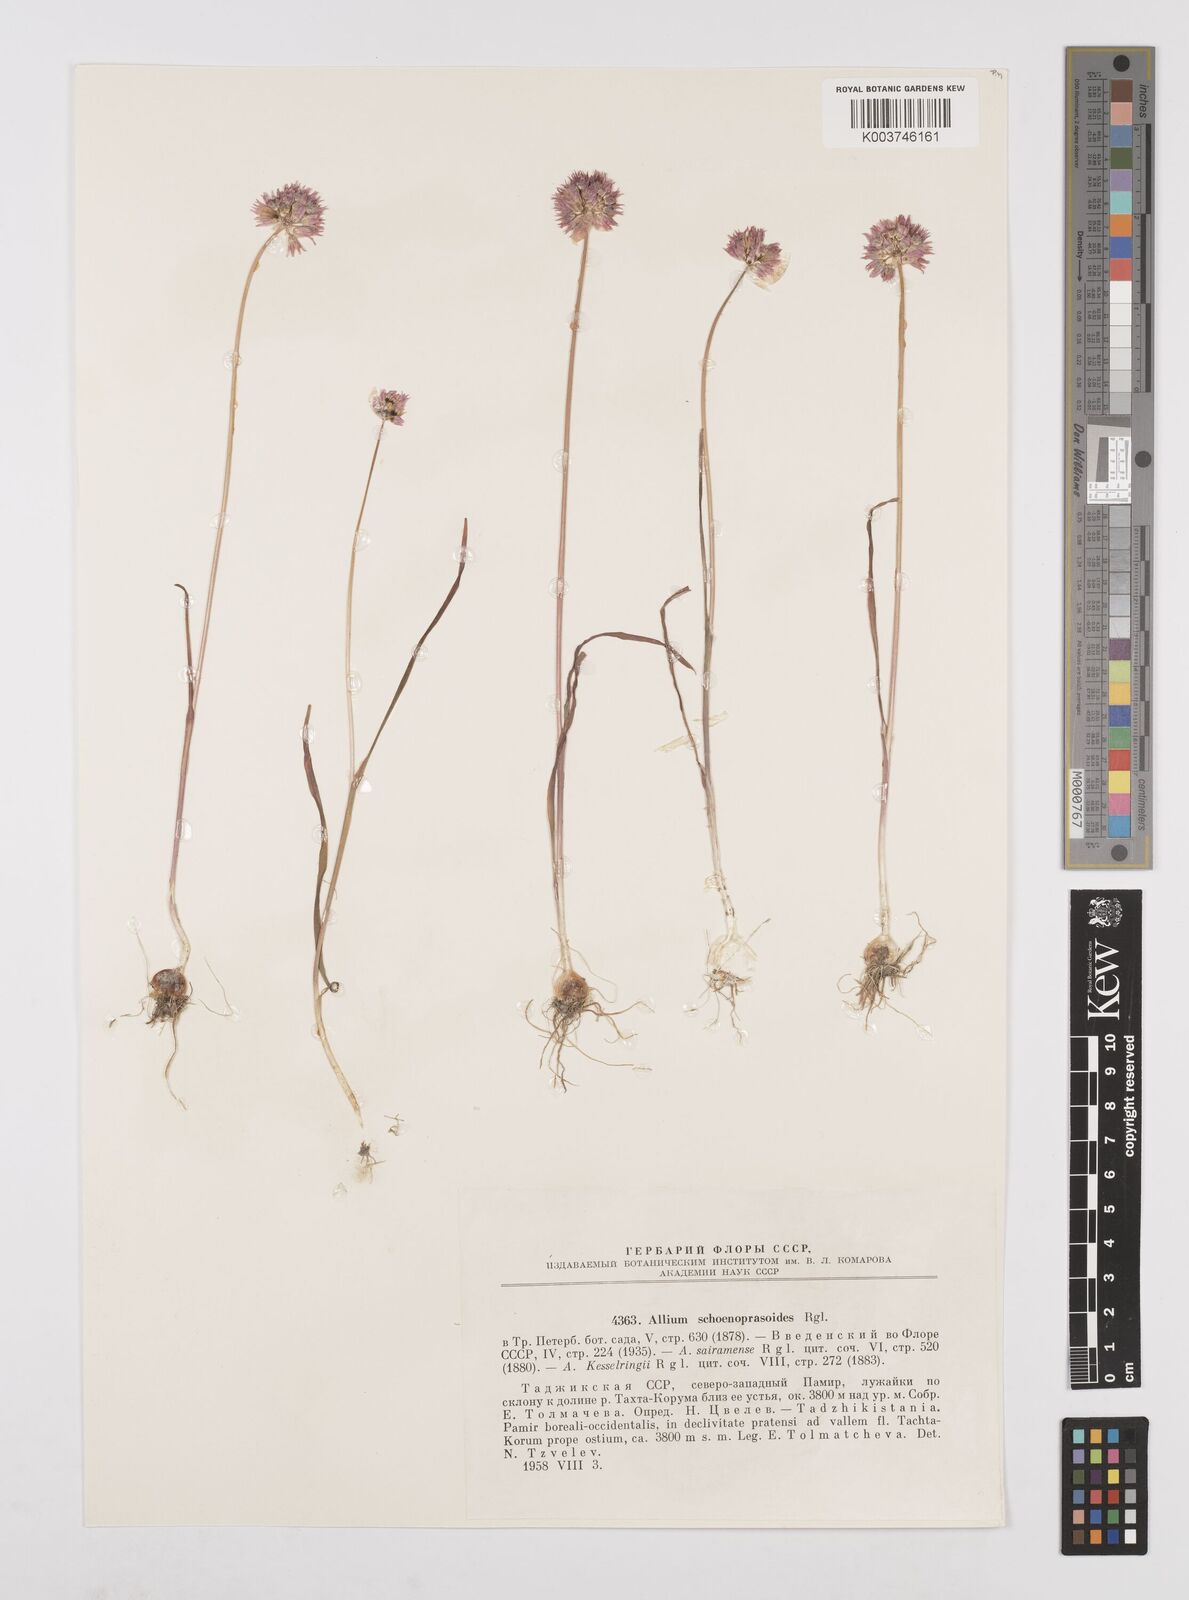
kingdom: Plantae
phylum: Tracheophyta
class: Liliopsida
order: Asparagales
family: Amaryllidaceae
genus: Allium
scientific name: Allium schoenoprasoides
